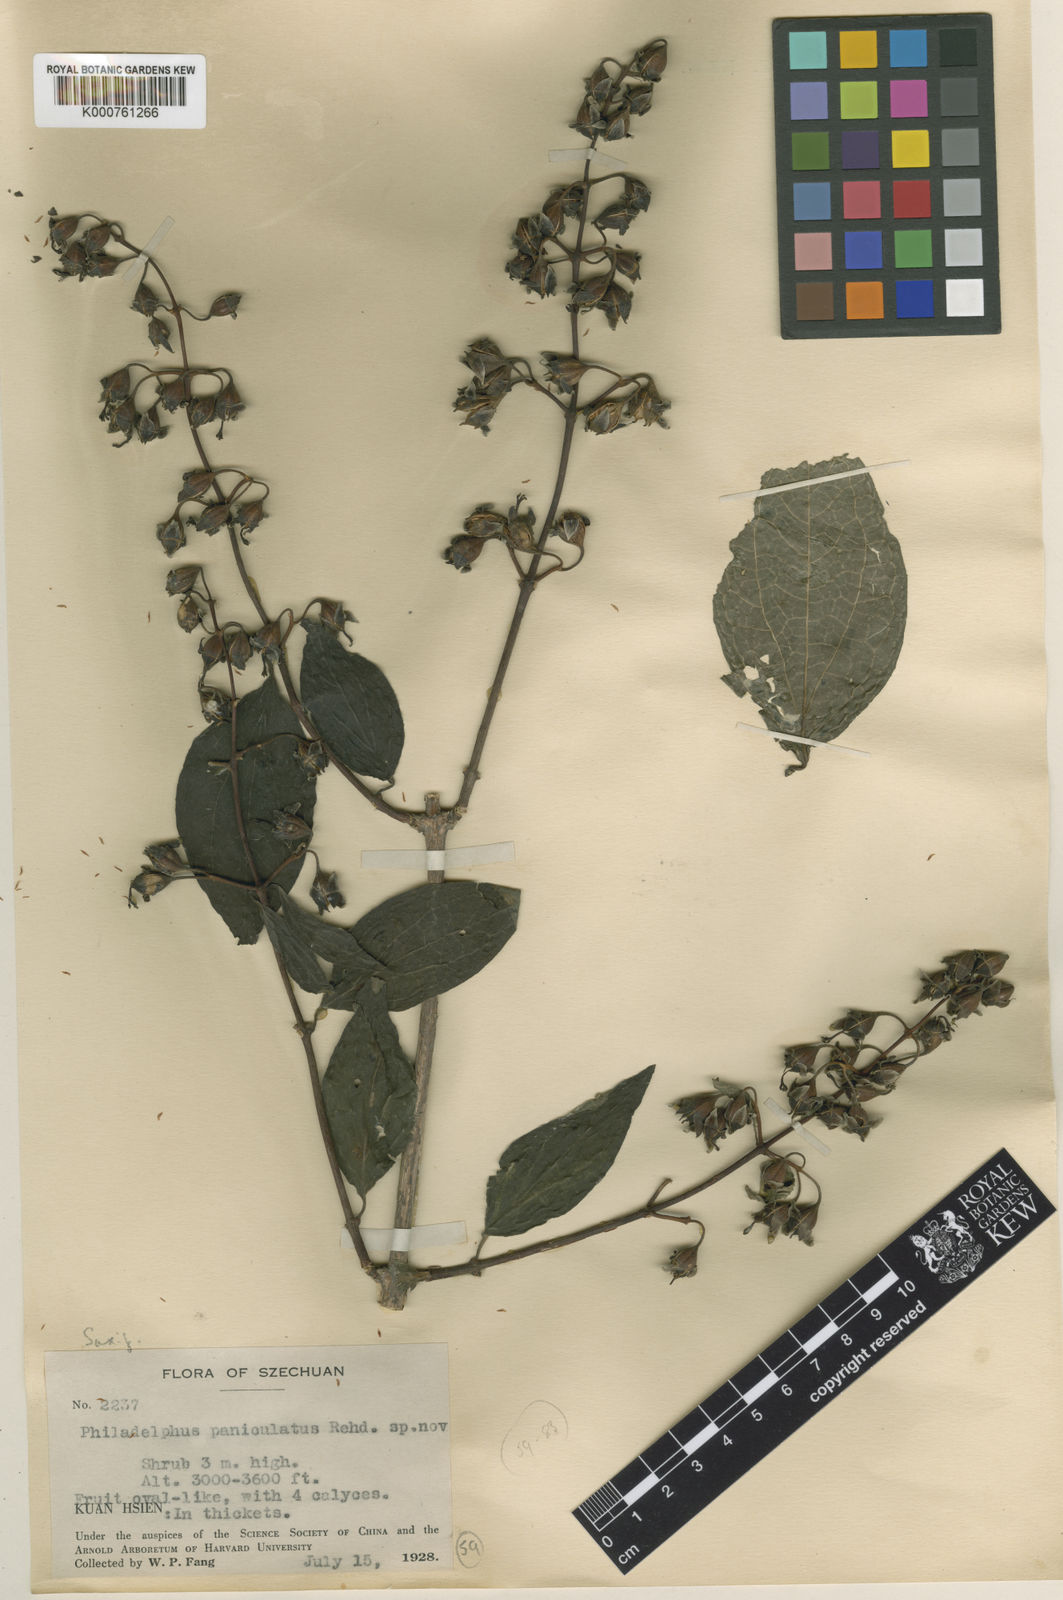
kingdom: Plantae
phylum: Tracheophyta
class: Magnoliopsida
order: Cornales
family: Hydrangeaceae
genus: Philadelphus
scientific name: Philadelphus subcanus
